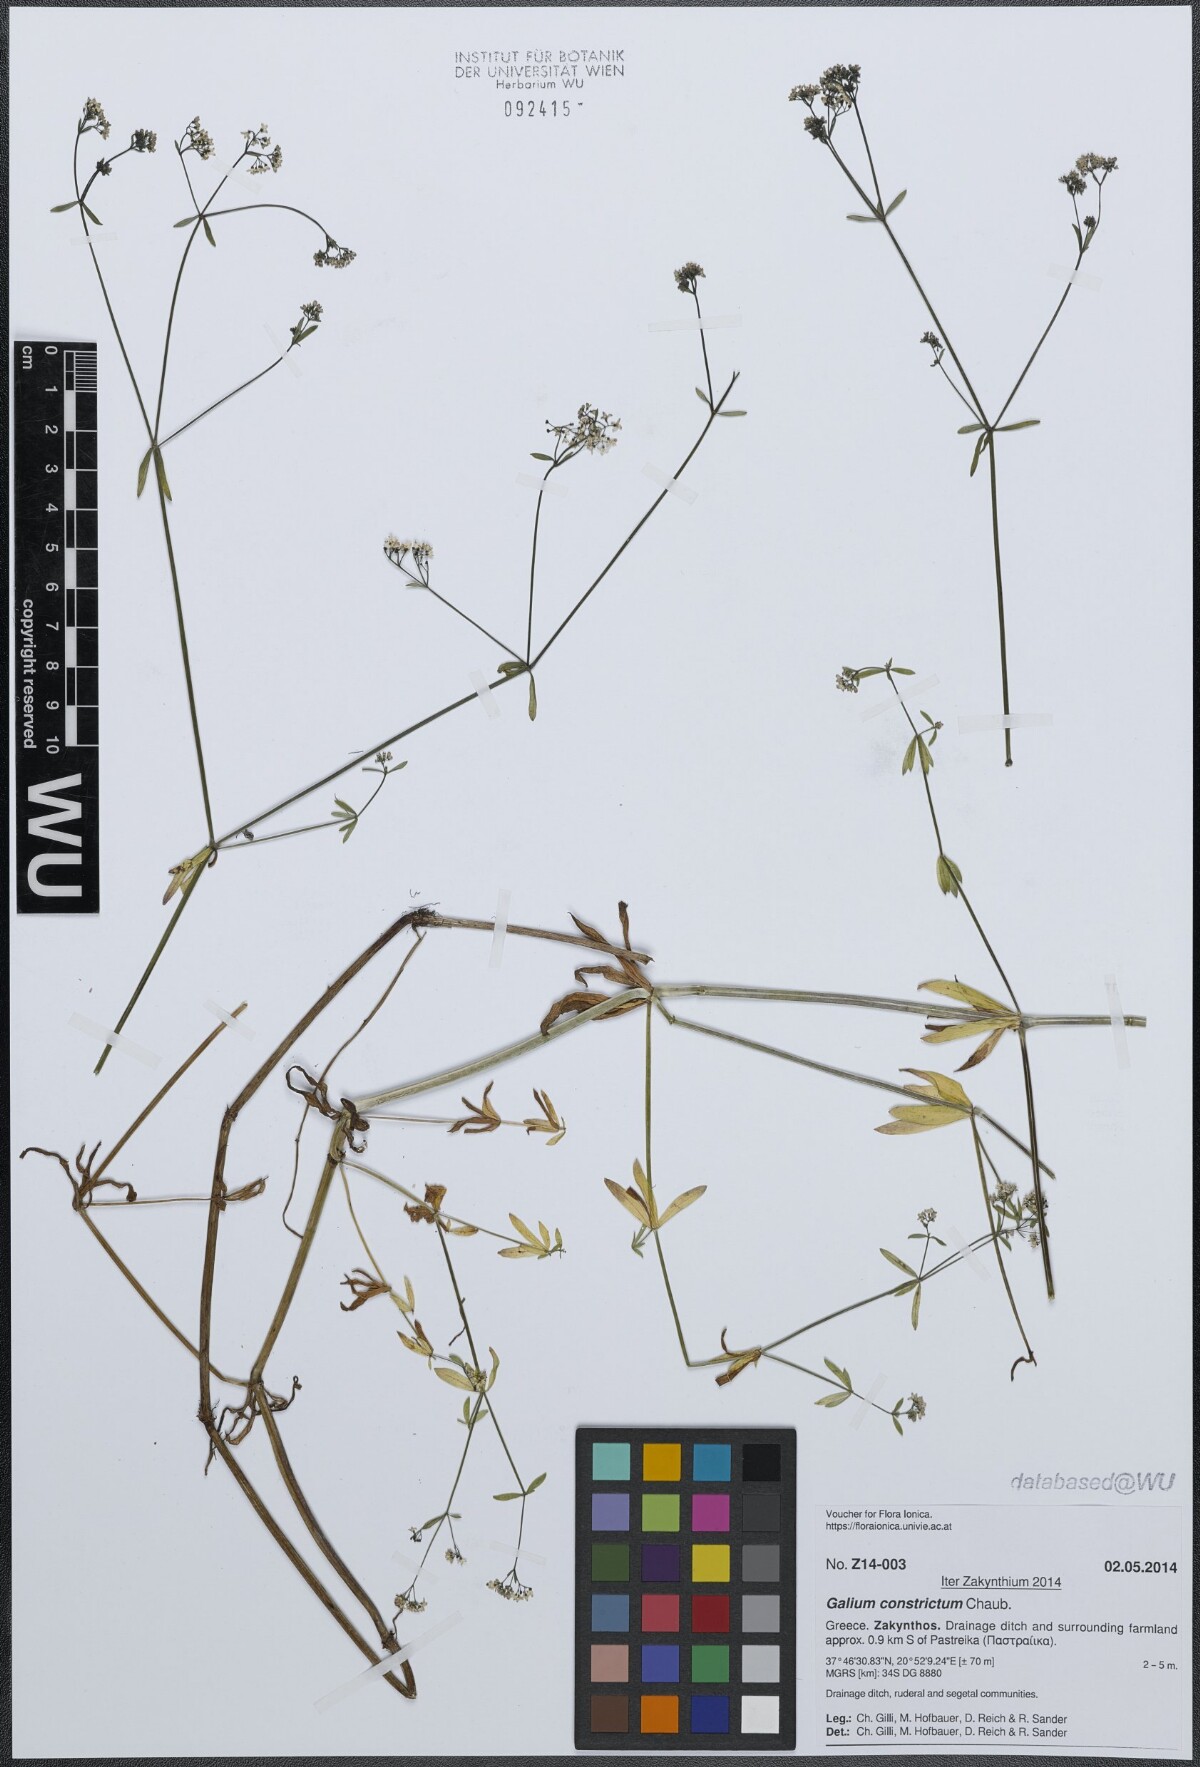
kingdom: Plantae
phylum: Tracheophyta
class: Magnoliopsida
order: Gentianales
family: Rubiaceae
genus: Galium
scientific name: Galium debile
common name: Slender marsh-bedstraw
